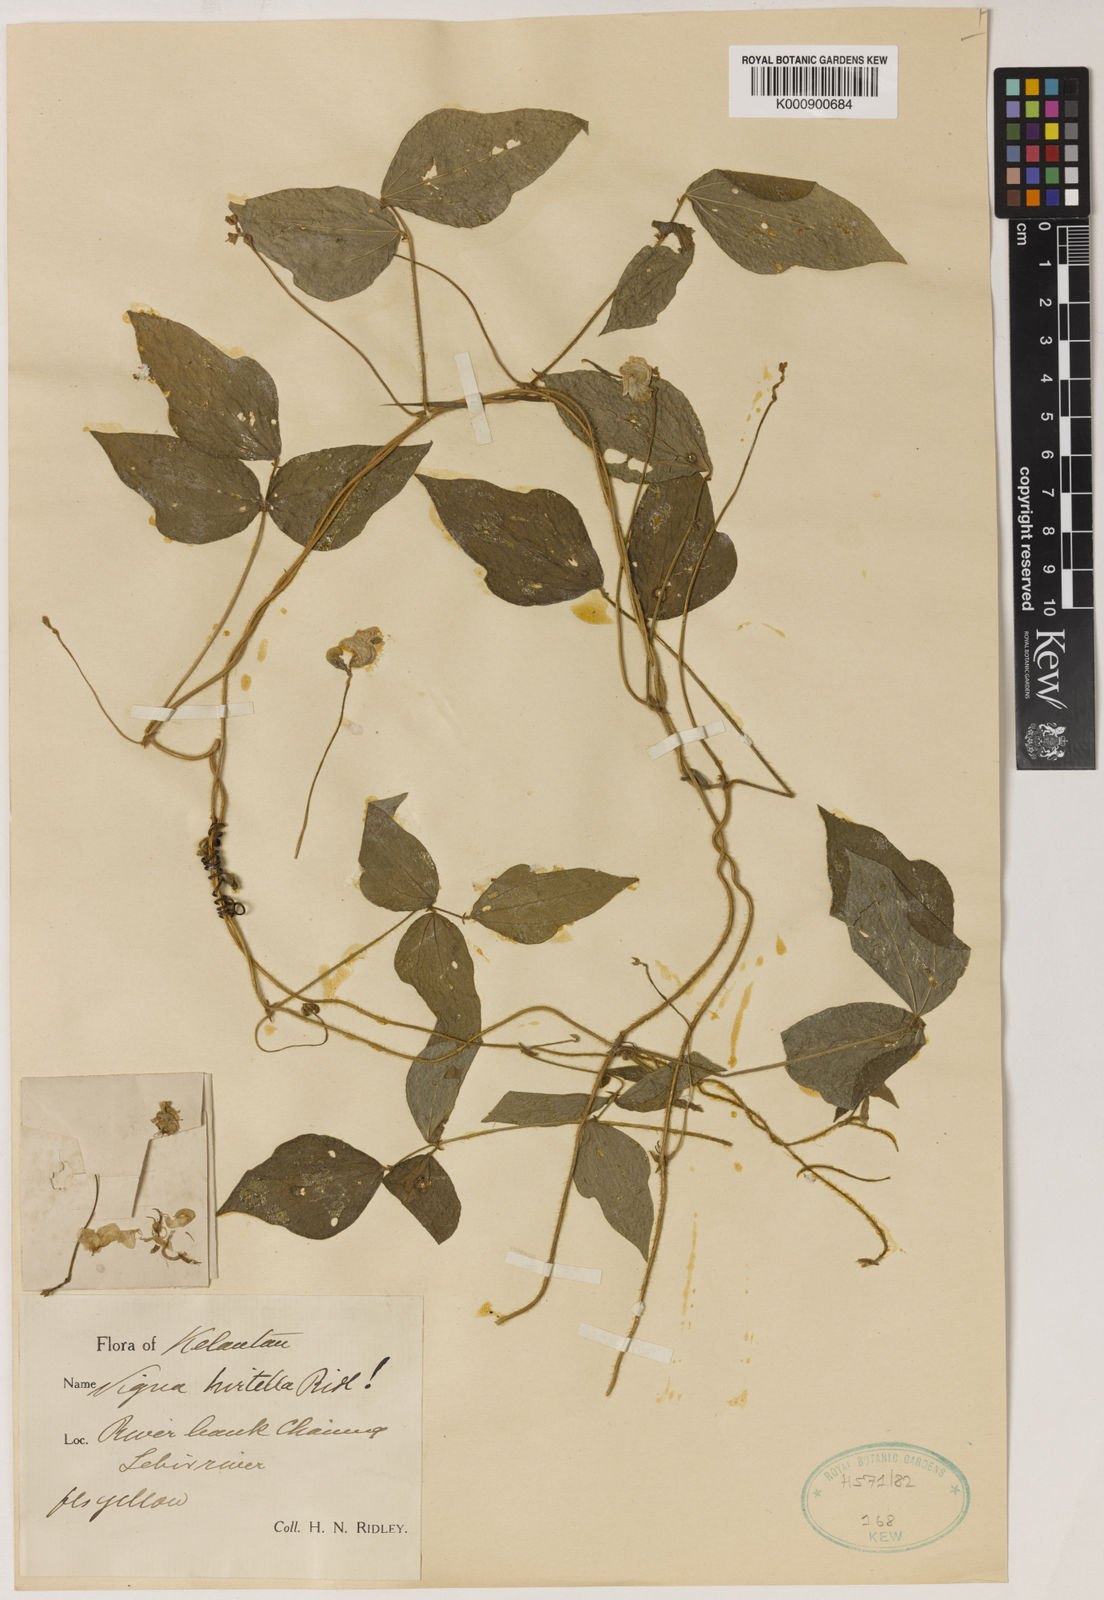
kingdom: Plantae
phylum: Tracheophyta
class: Magnoliopsida
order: Fabales
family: Fabaceae
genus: Vigna
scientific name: Vigna hirtella
